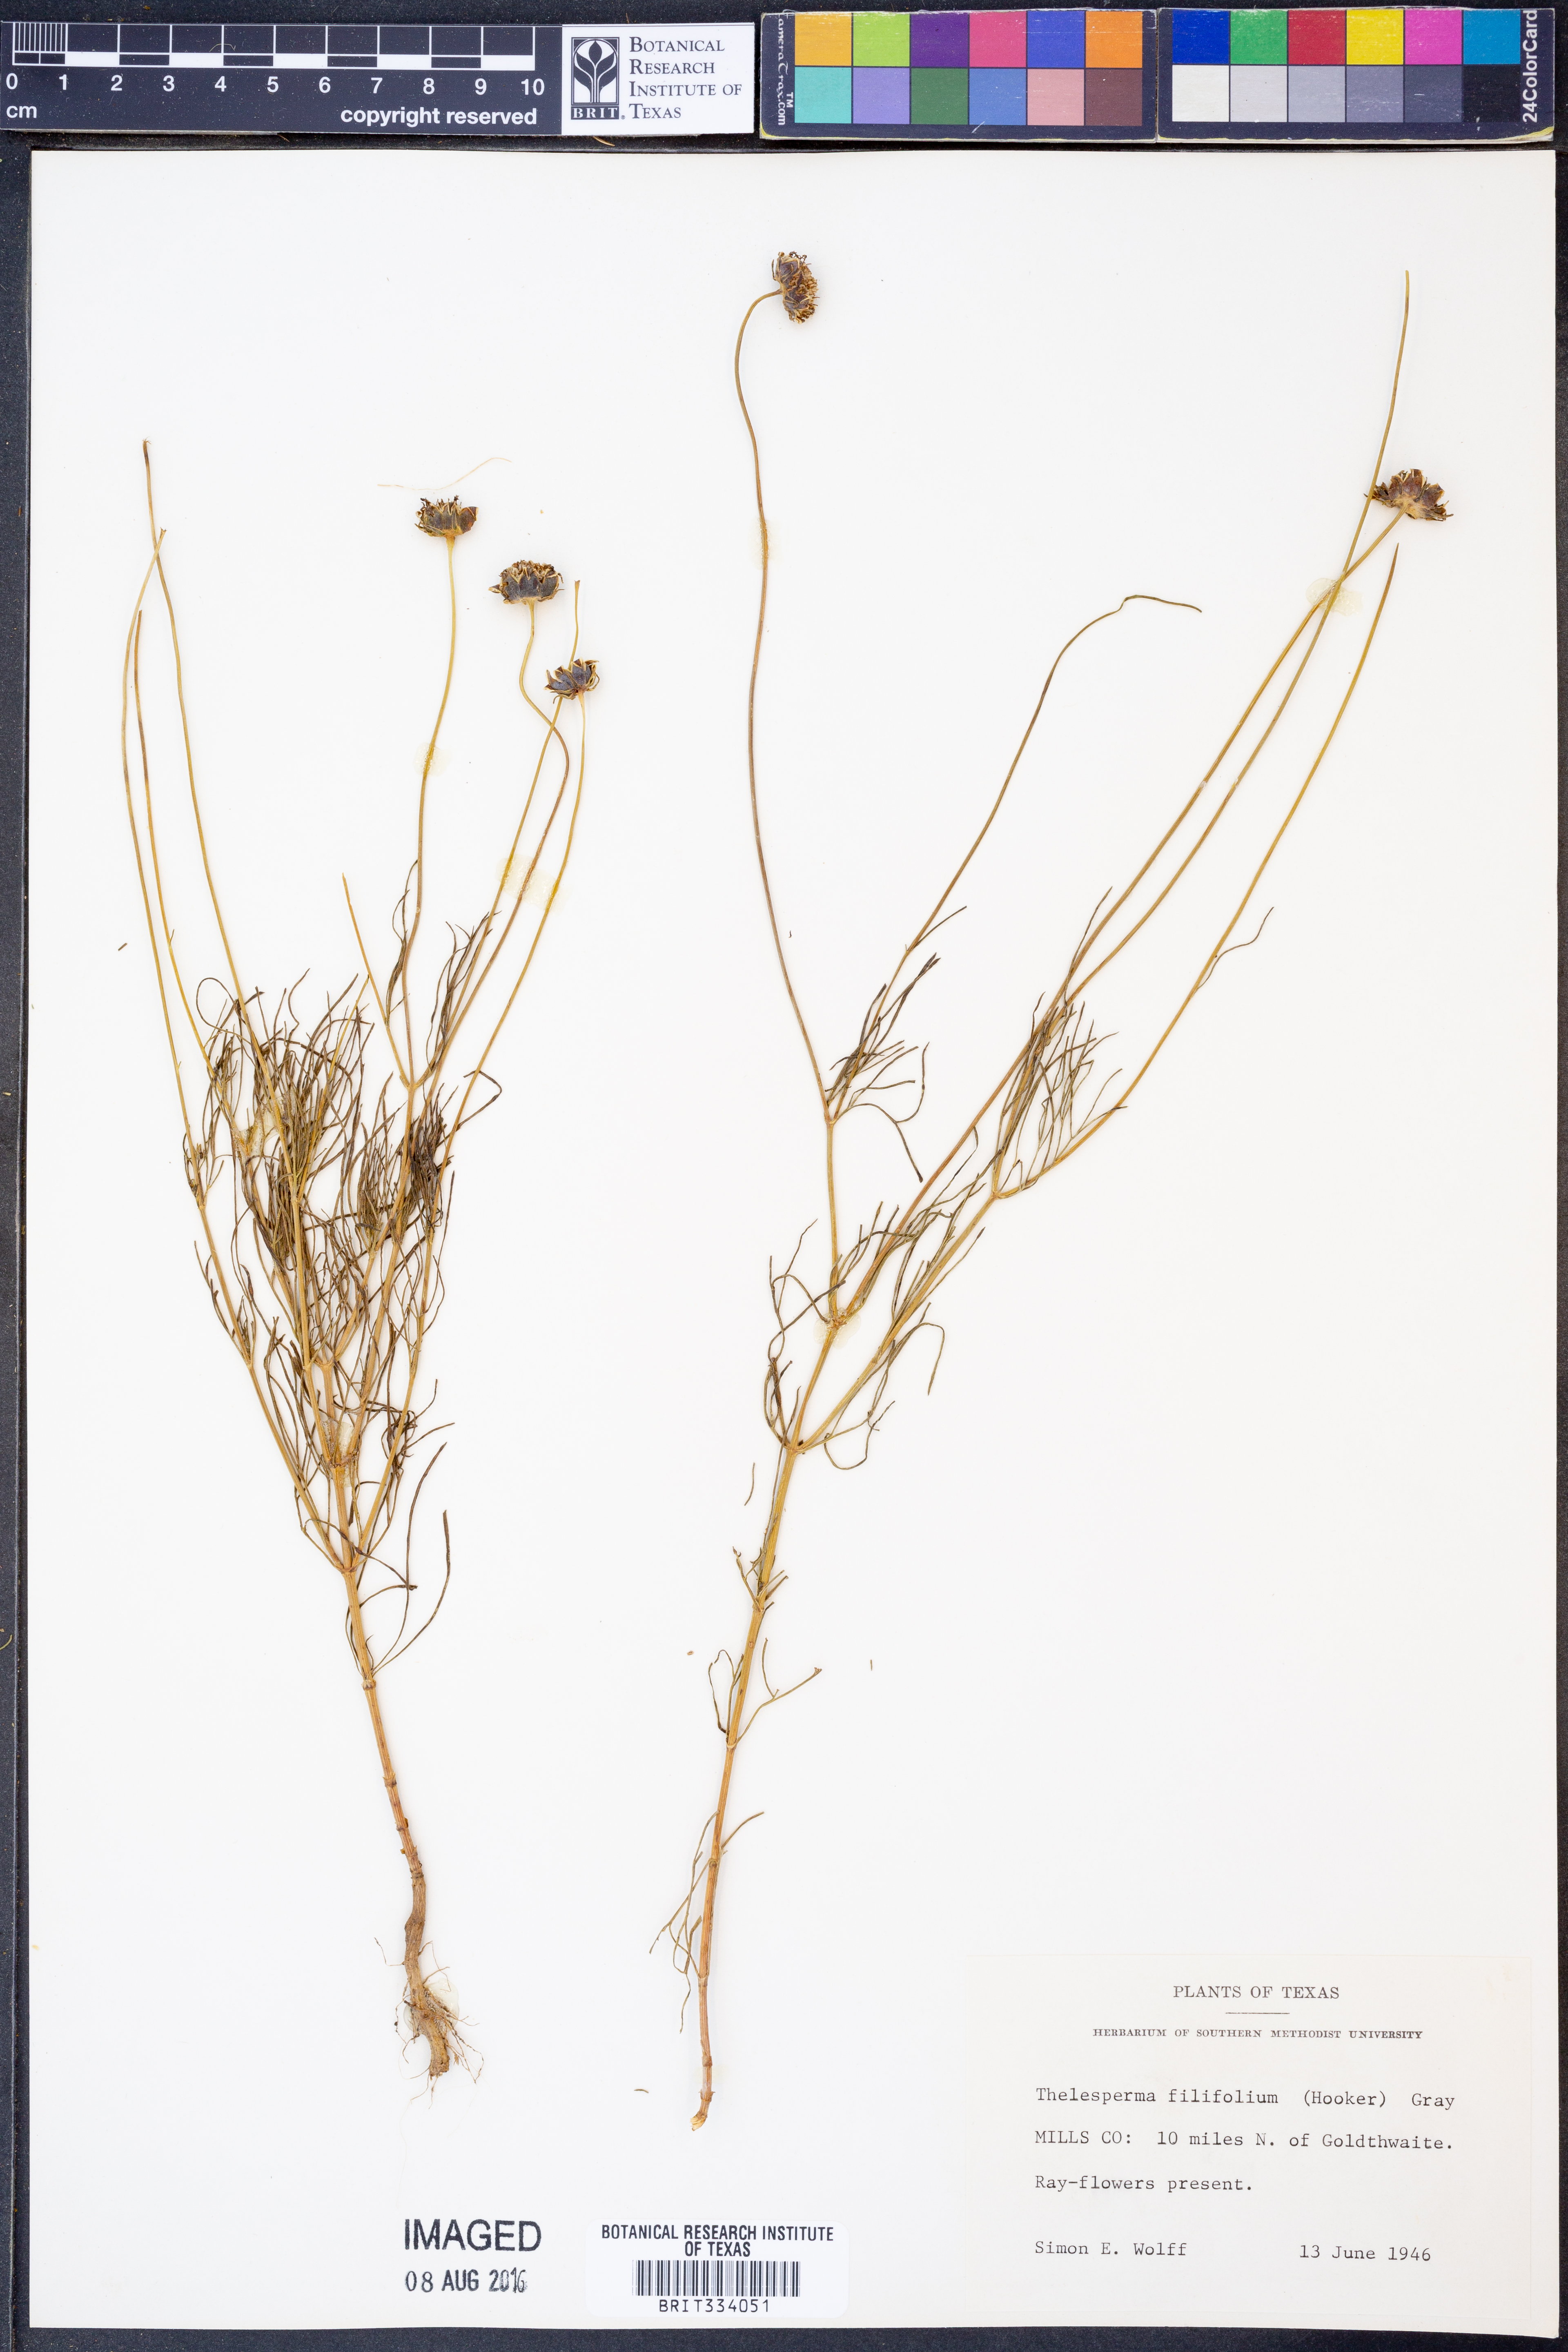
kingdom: Plantae
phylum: Tracheophyta
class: Magnoliopsida
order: Asterales
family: Asteraceae
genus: Thelesperma
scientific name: Thelesperma filifolium
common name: Stiff greenthread
